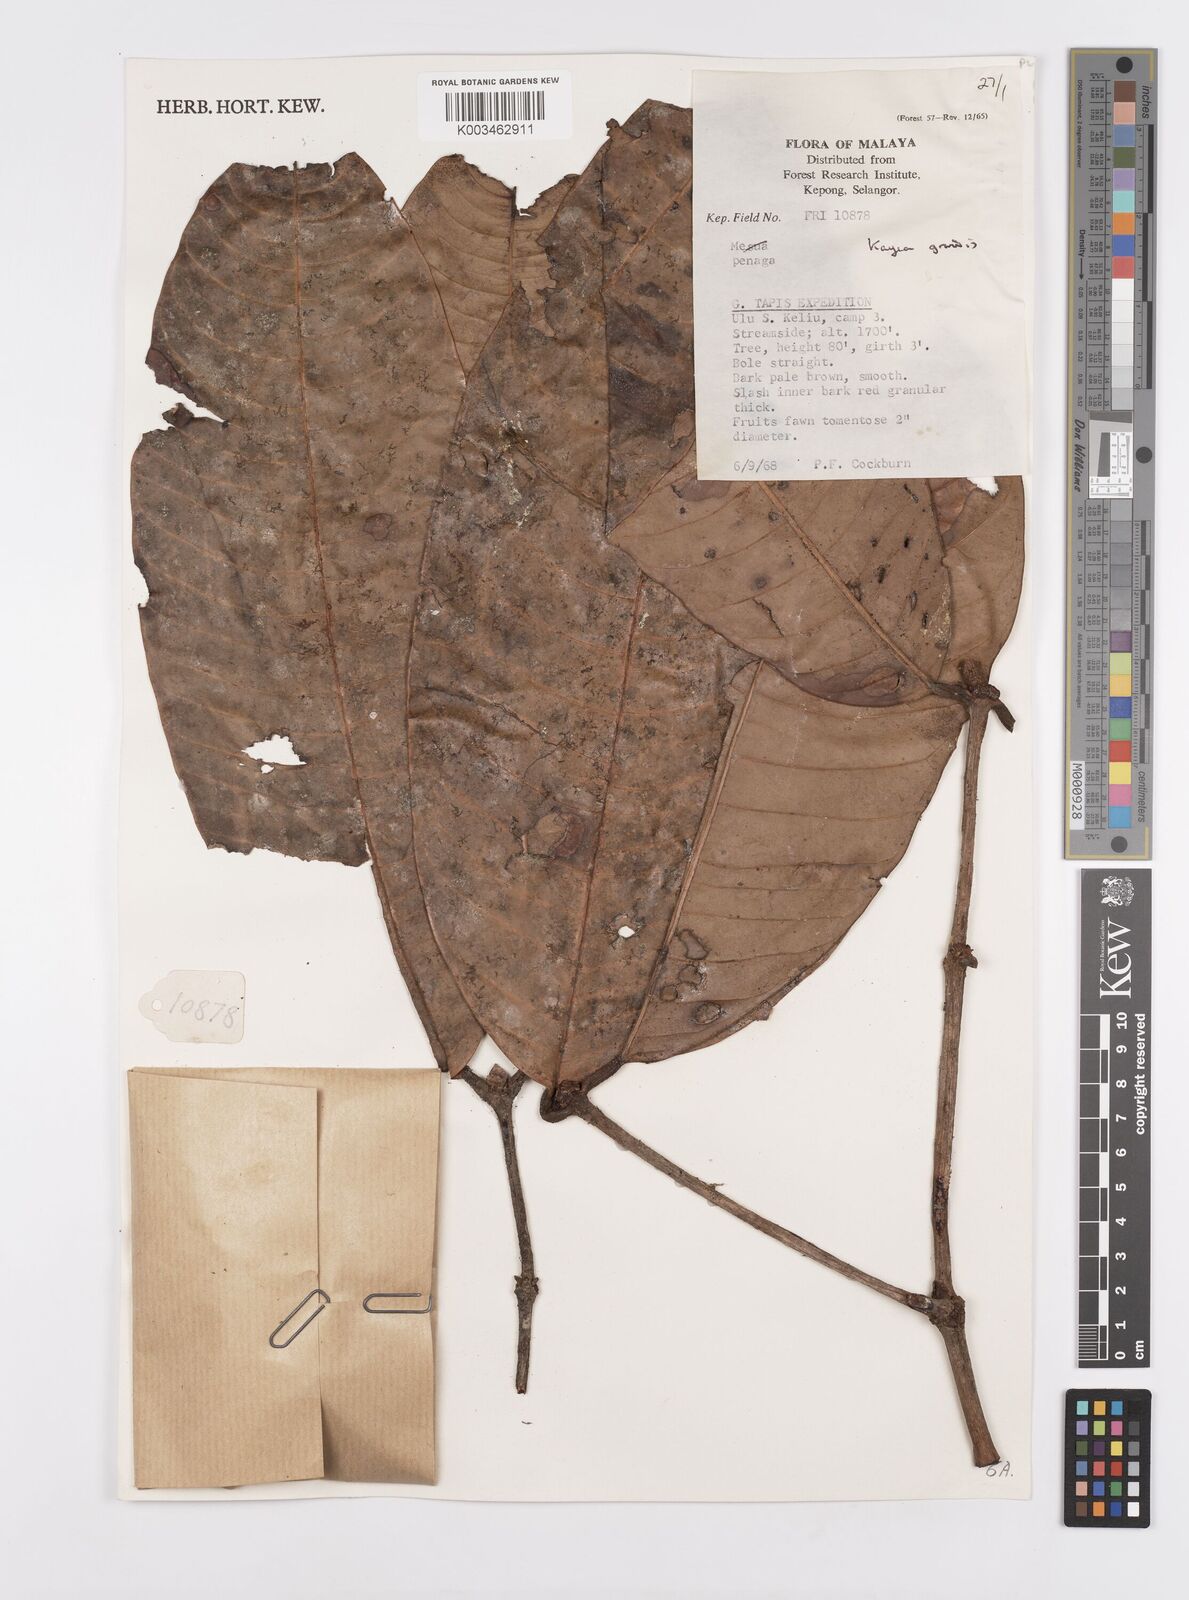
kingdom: Plantae
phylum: Tracheophyta
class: Magnoliopsida
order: Malpighiales
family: Calophyllaceae
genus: Kayea
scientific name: Kayea grandis
